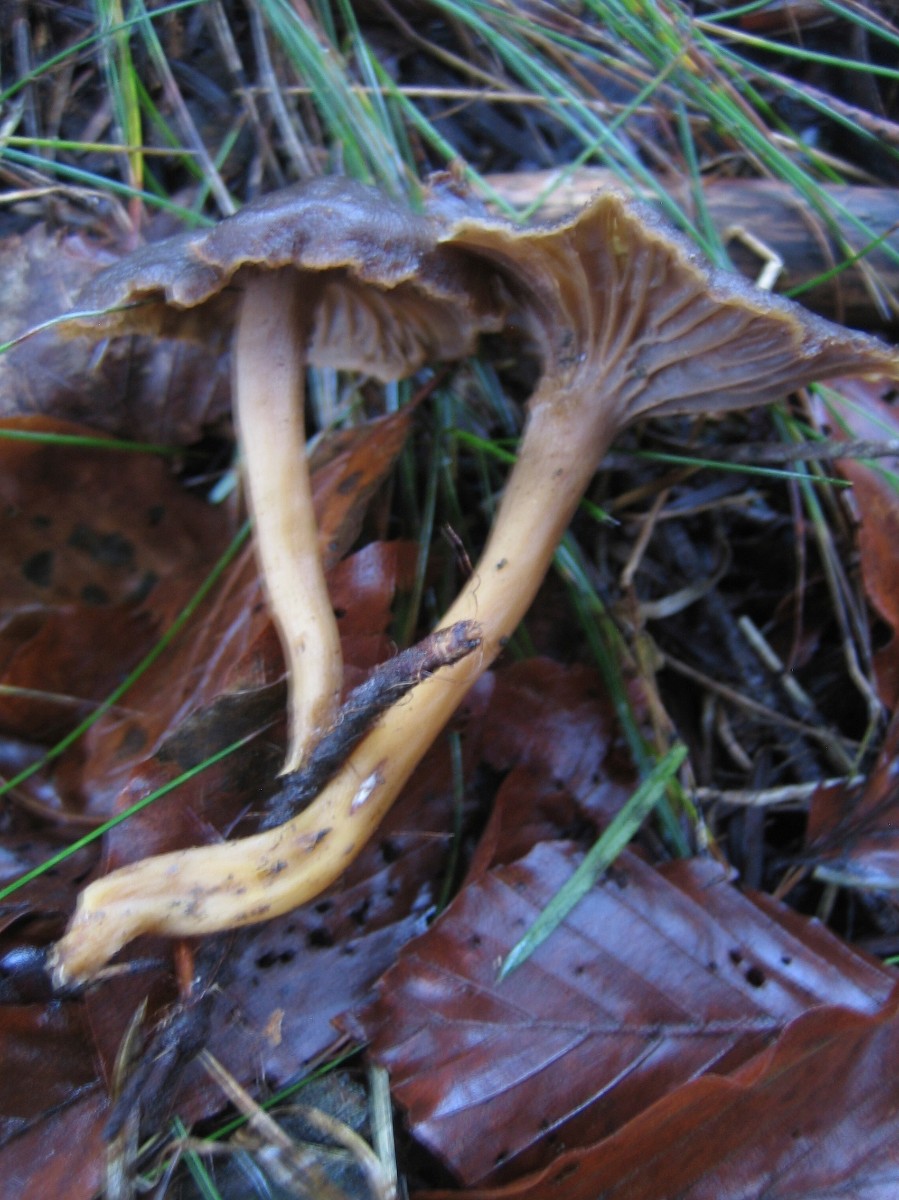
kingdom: Fungi
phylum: Basidiomycota
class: Agaricomycetes
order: Cantharellales
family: Hydnaceae
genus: Craterellus
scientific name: Craterellus tubaeformis
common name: tragt-kantarel
